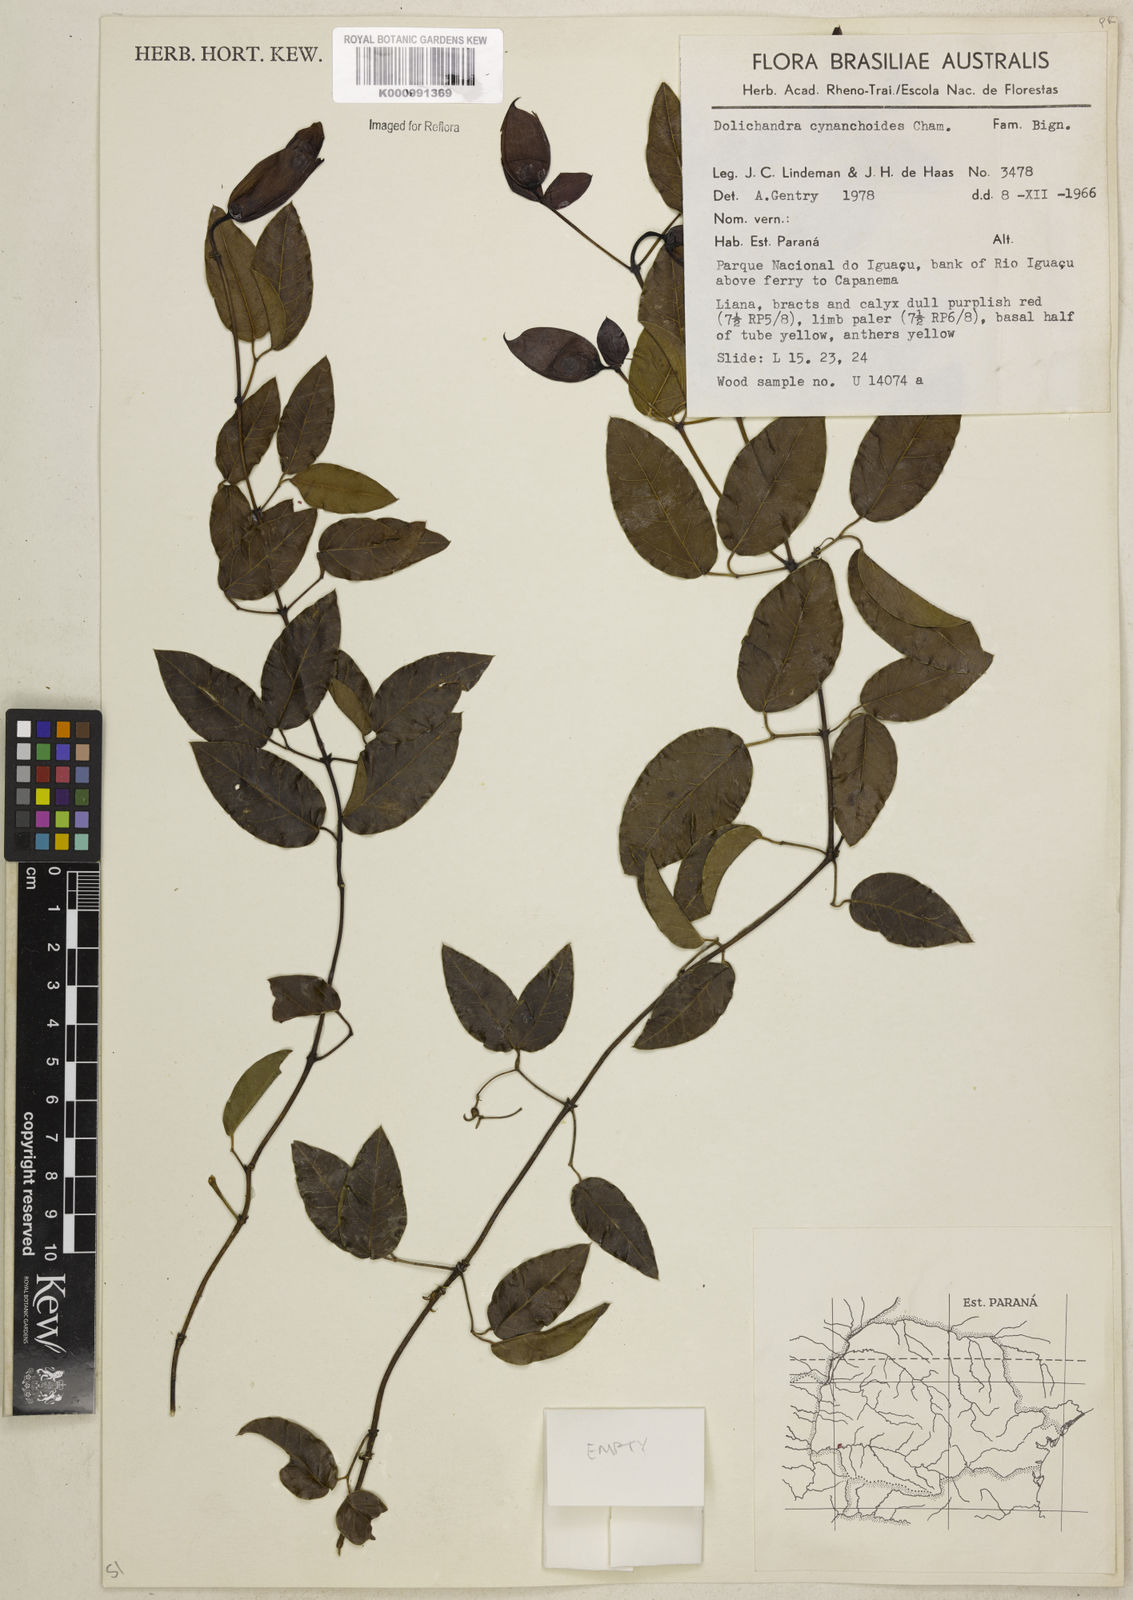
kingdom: Plantae
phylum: Tracheophyta
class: Magnoliopsida
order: Lamiales
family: Bignoniaceae
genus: Dolichandra
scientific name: Dolichandra cynanchoides
